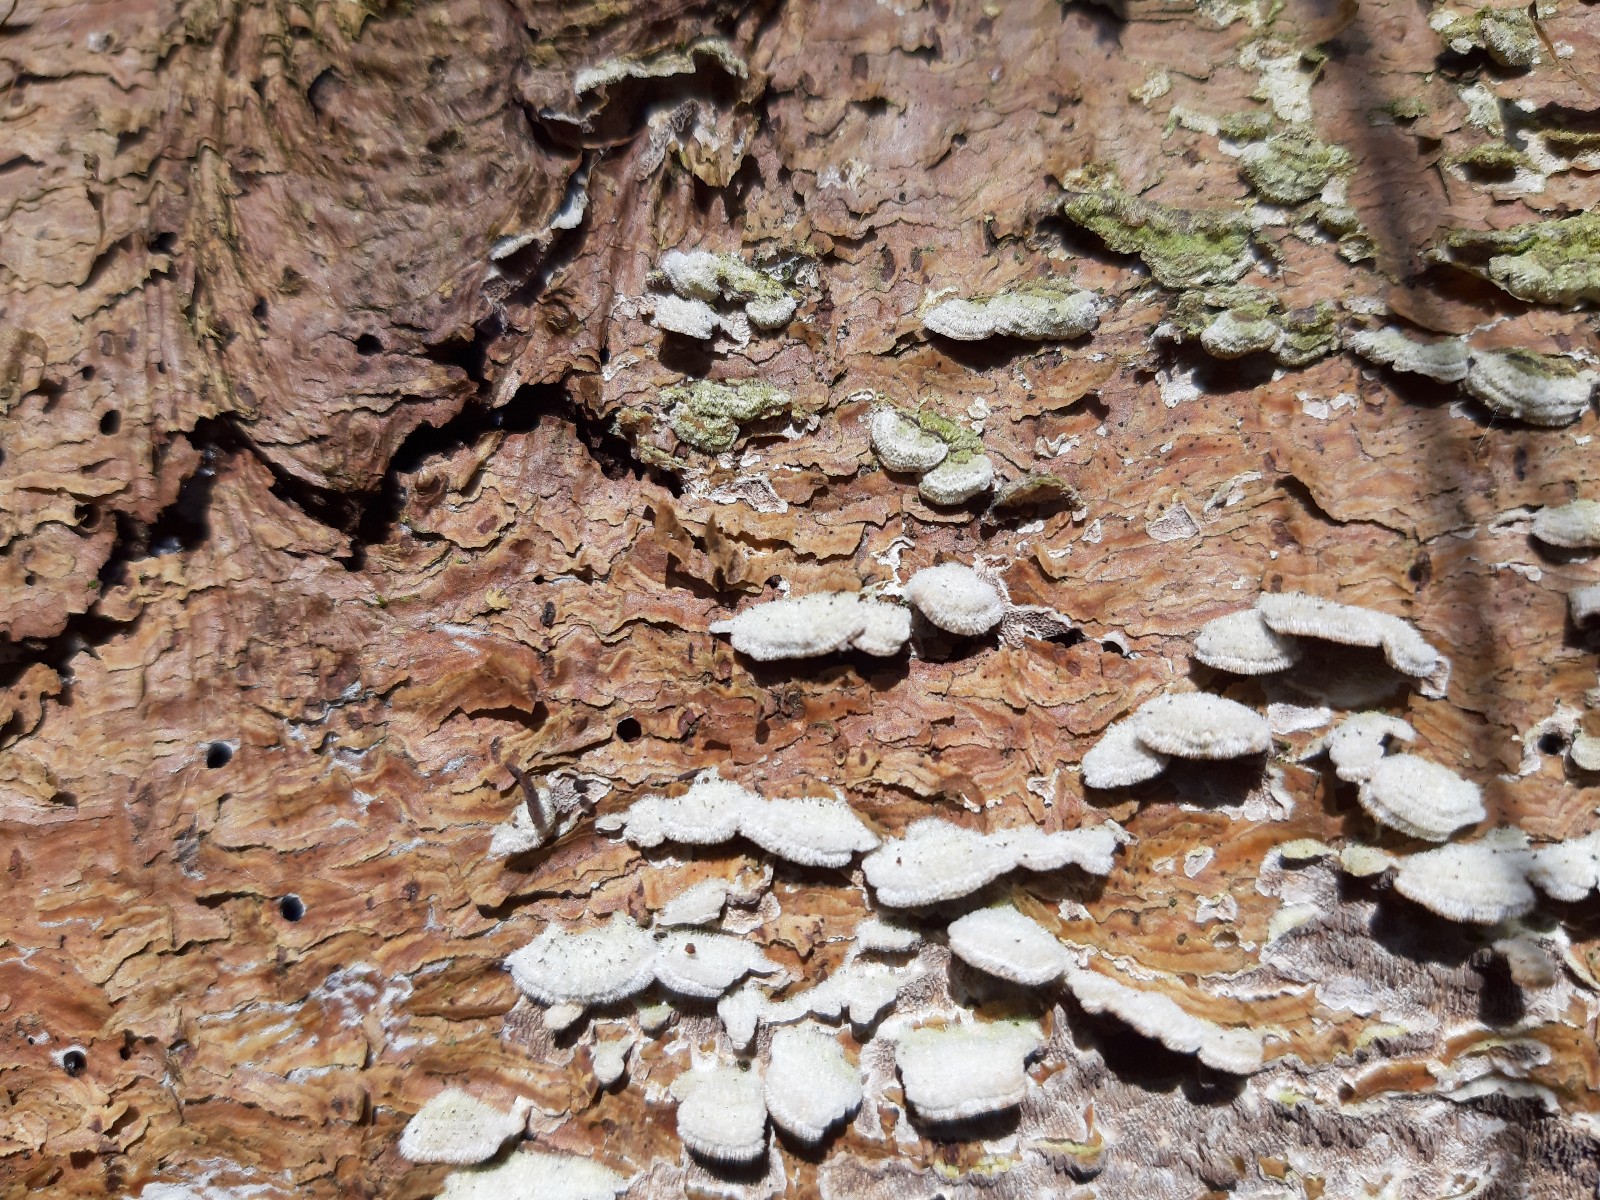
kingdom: Fungi
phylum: Basidiomycota
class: Agaricomycetes
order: Polyporales
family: Polyporaceae
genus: Trichaptum
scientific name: Trichaptum
